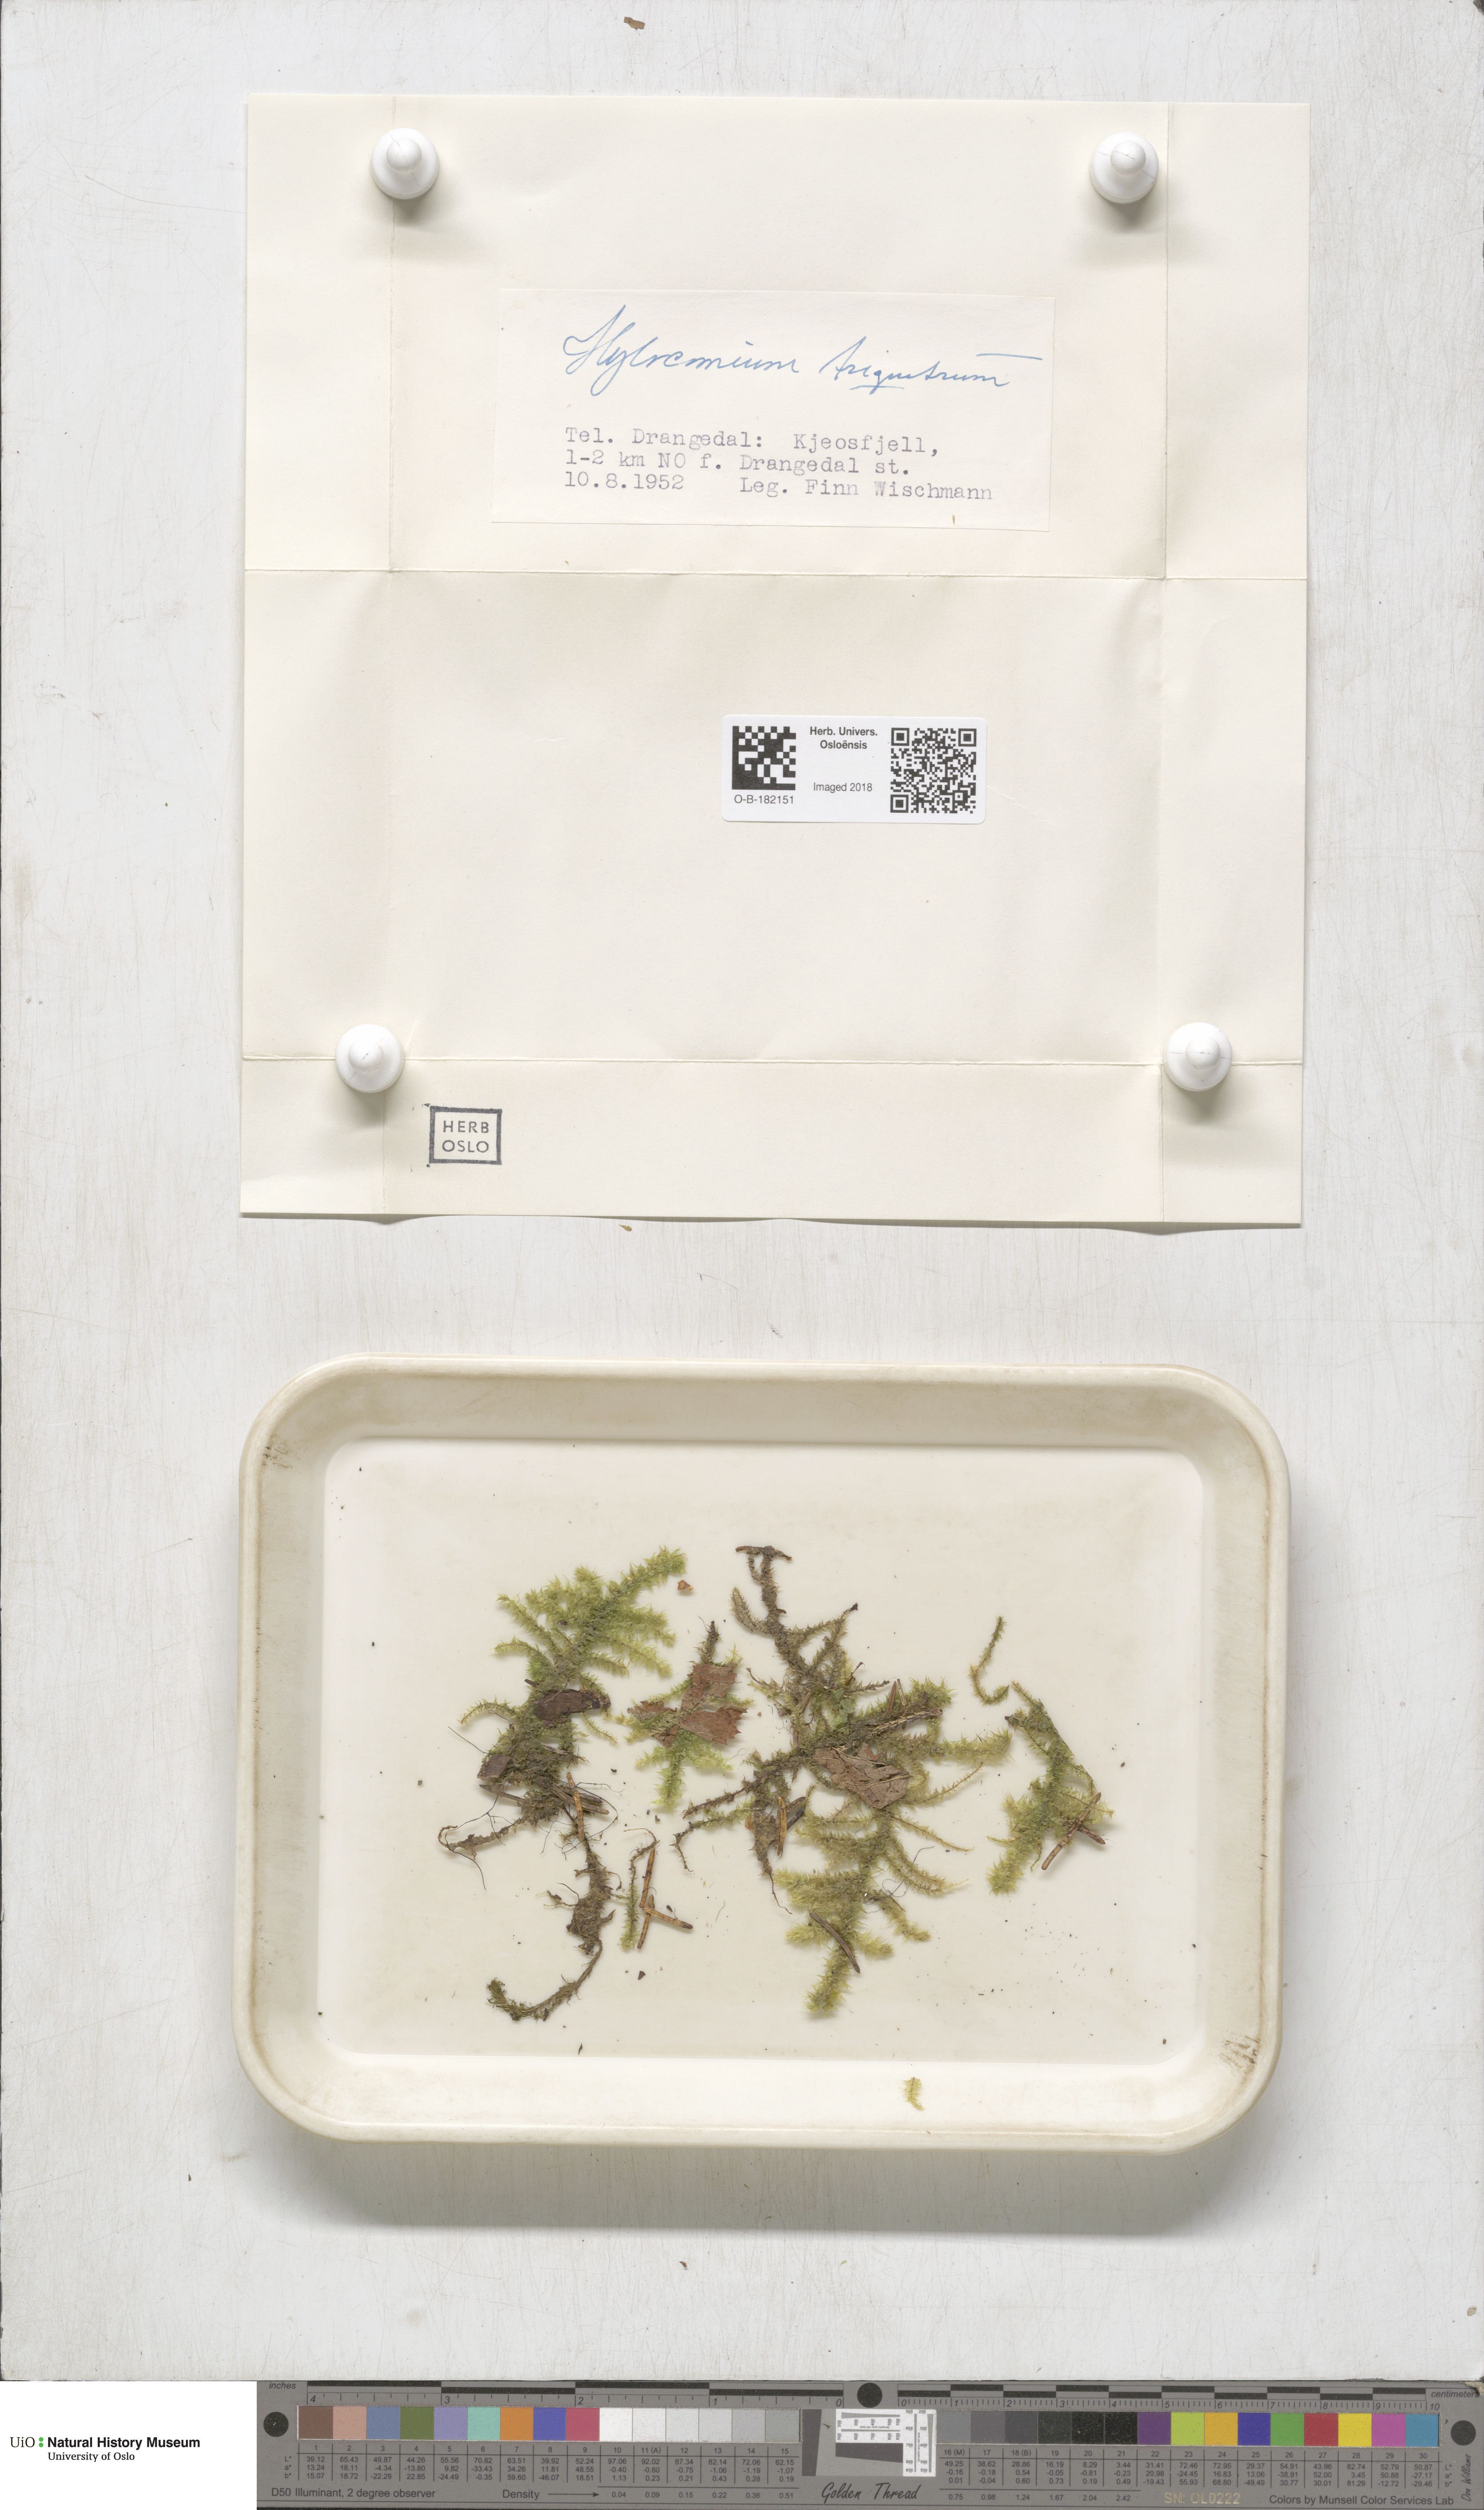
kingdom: Plantae
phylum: Bryophyta
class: Bryopsida
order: Hypnales
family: Hylocomiaceae
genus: Hylocomiadelphus
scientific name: Hylocomiadelphus triquetrus
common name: Rough goose neck moss
